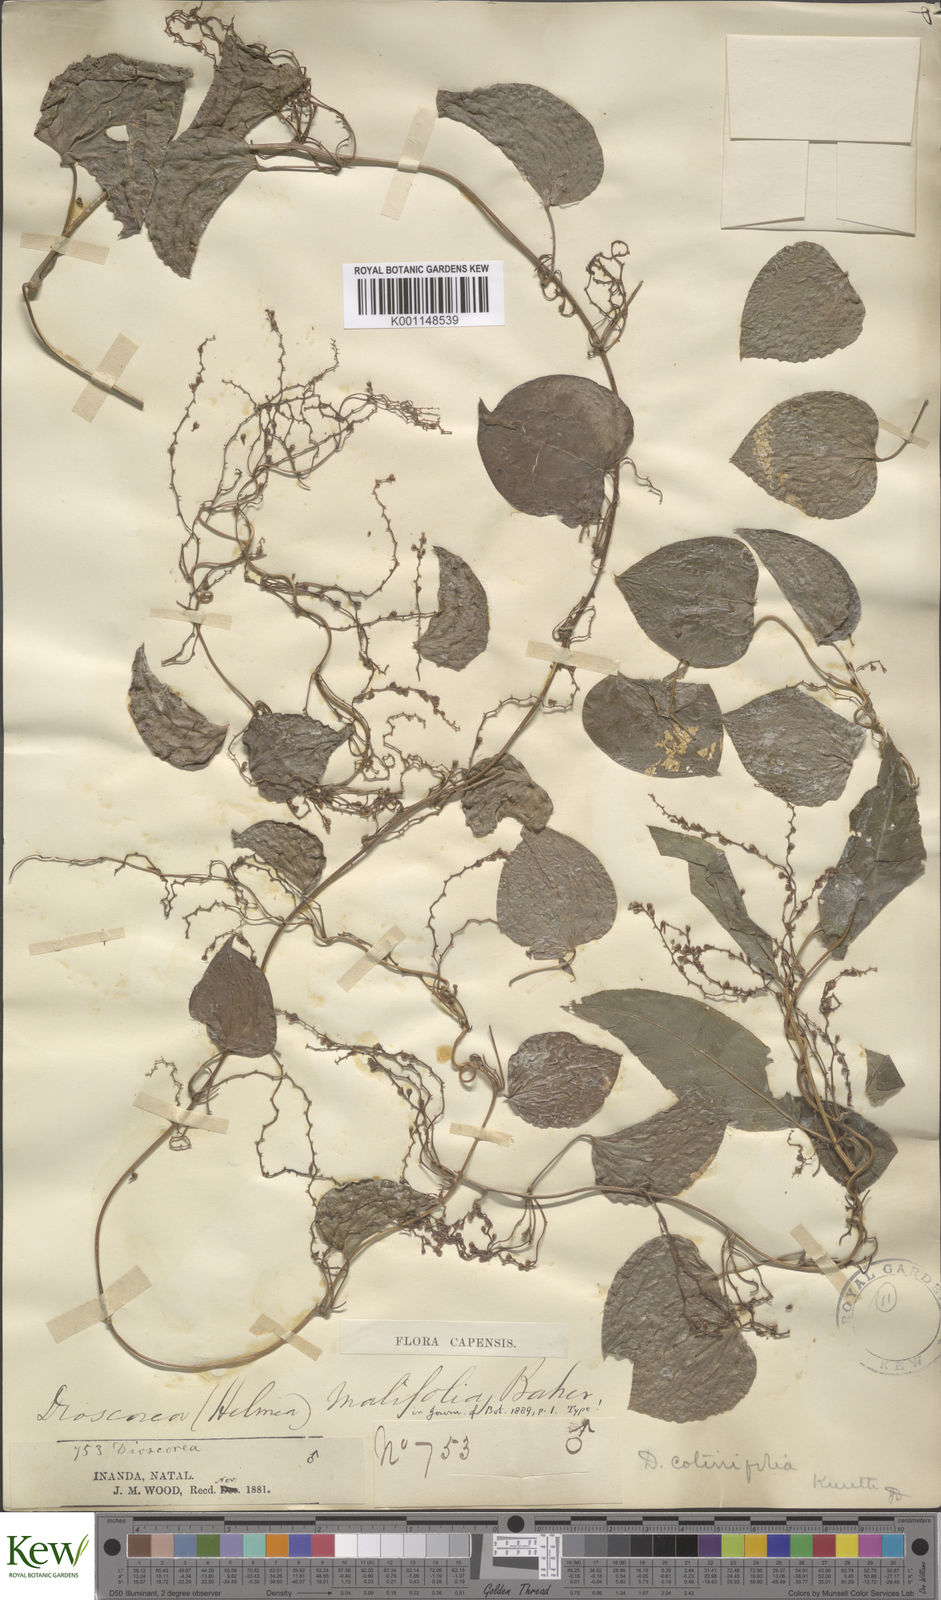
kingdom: Plantae
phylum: Tracheophyta
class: Liliopsida
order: Dioscoreales
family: Dioscoreaceae
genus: Dioscorea
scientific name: Dioscorea cotinifolia
